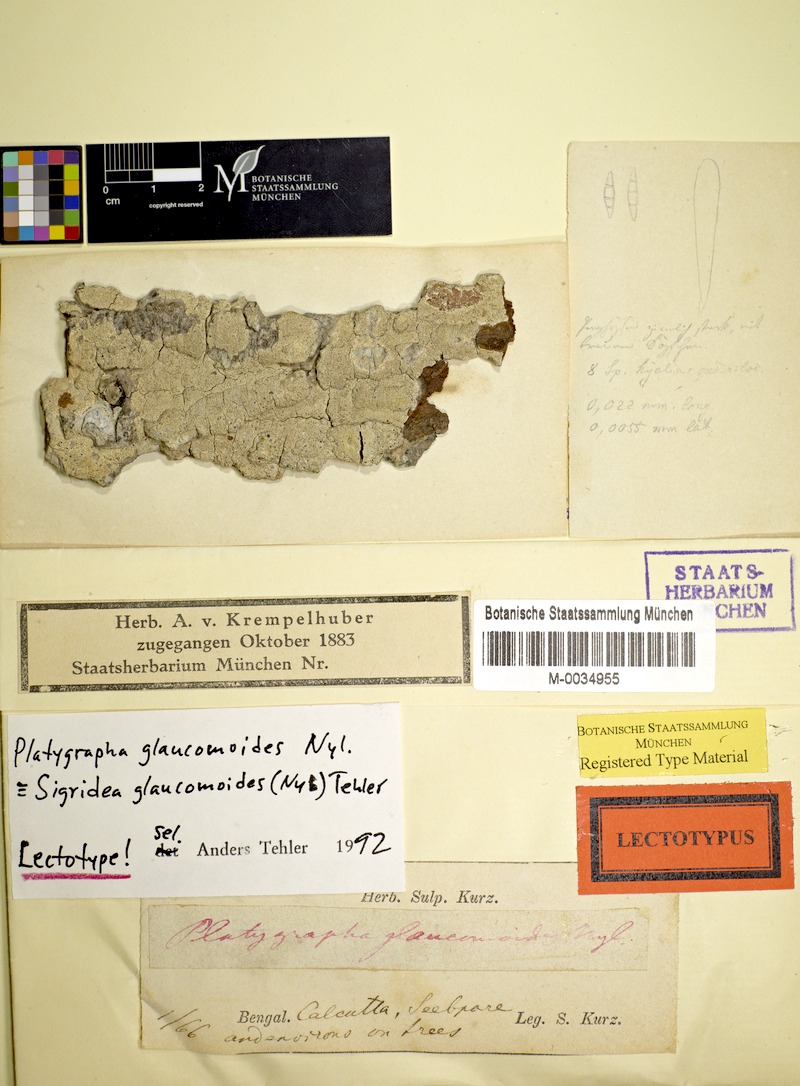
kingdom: Fungi
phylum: Ascomycota
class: Arthoniomycetes
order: Arthoniales
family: Roccellaceae
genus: Sigridea
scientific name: Sigridea glaucomoides
